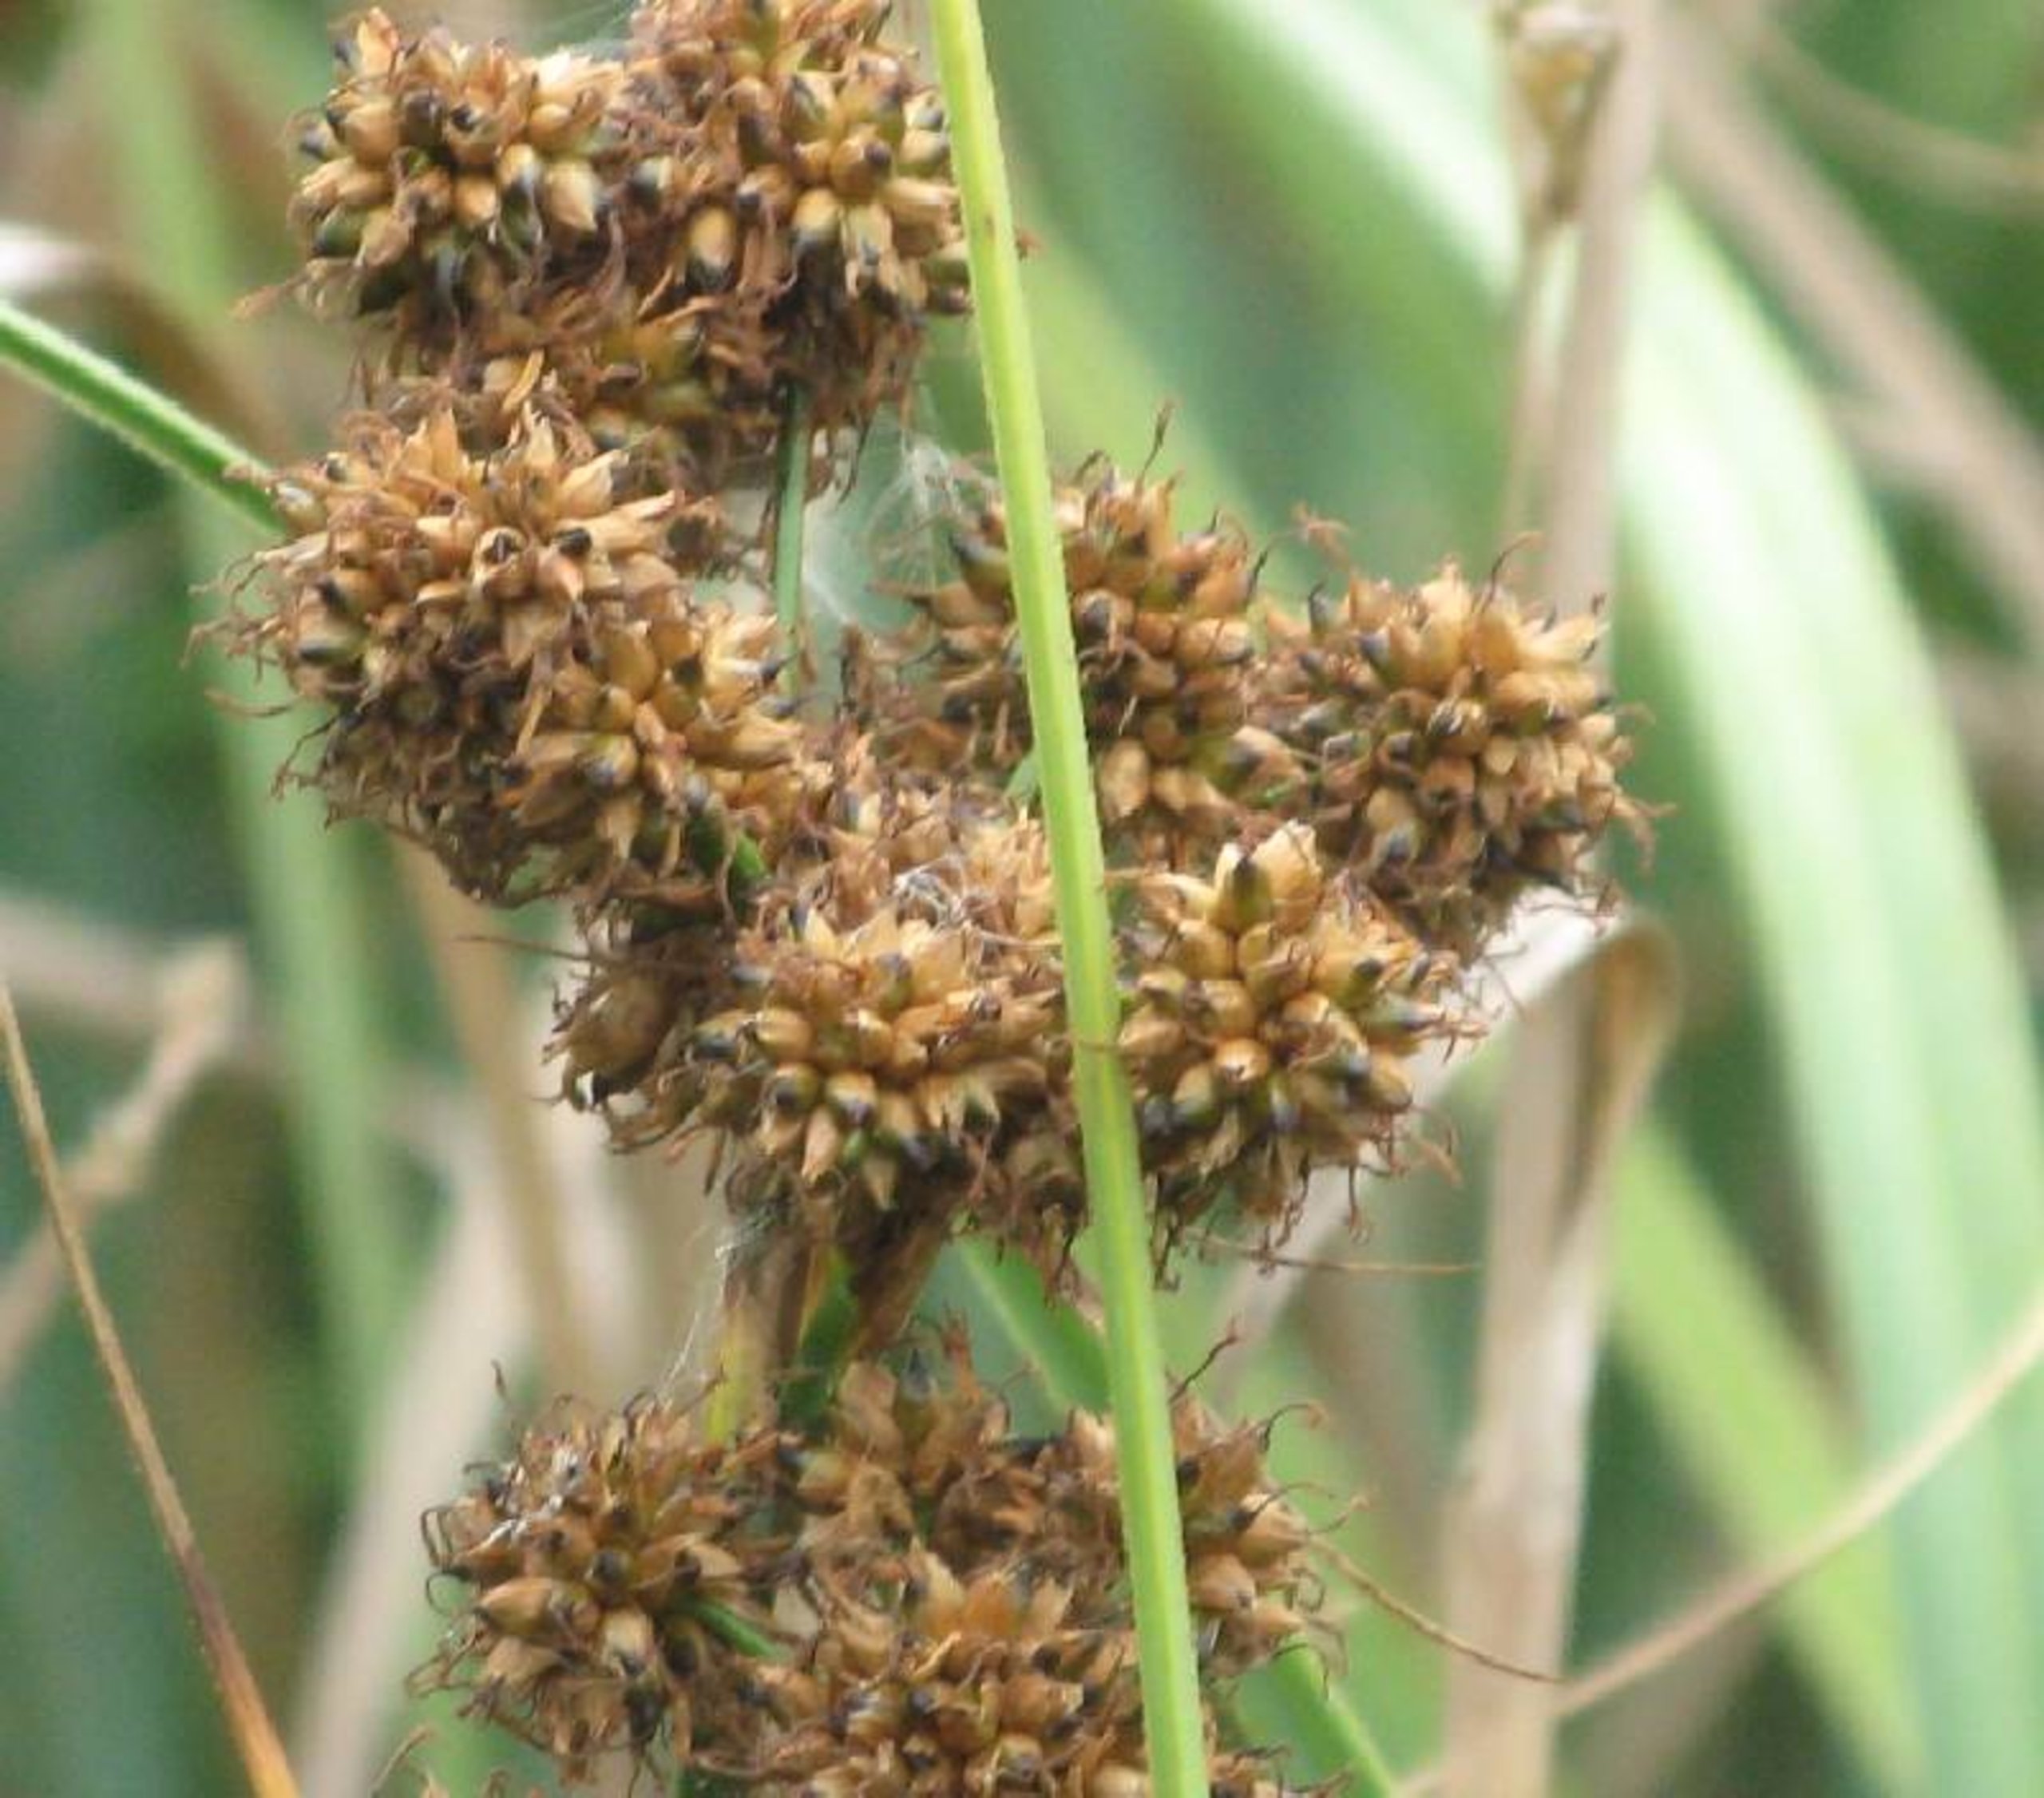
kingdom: Plantae
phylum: Tracheophyta
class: Liliopsida
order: Poales
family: Cyperaceae
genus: Cladium
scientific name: Cladium mariscus
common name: Hvas avneknippe
